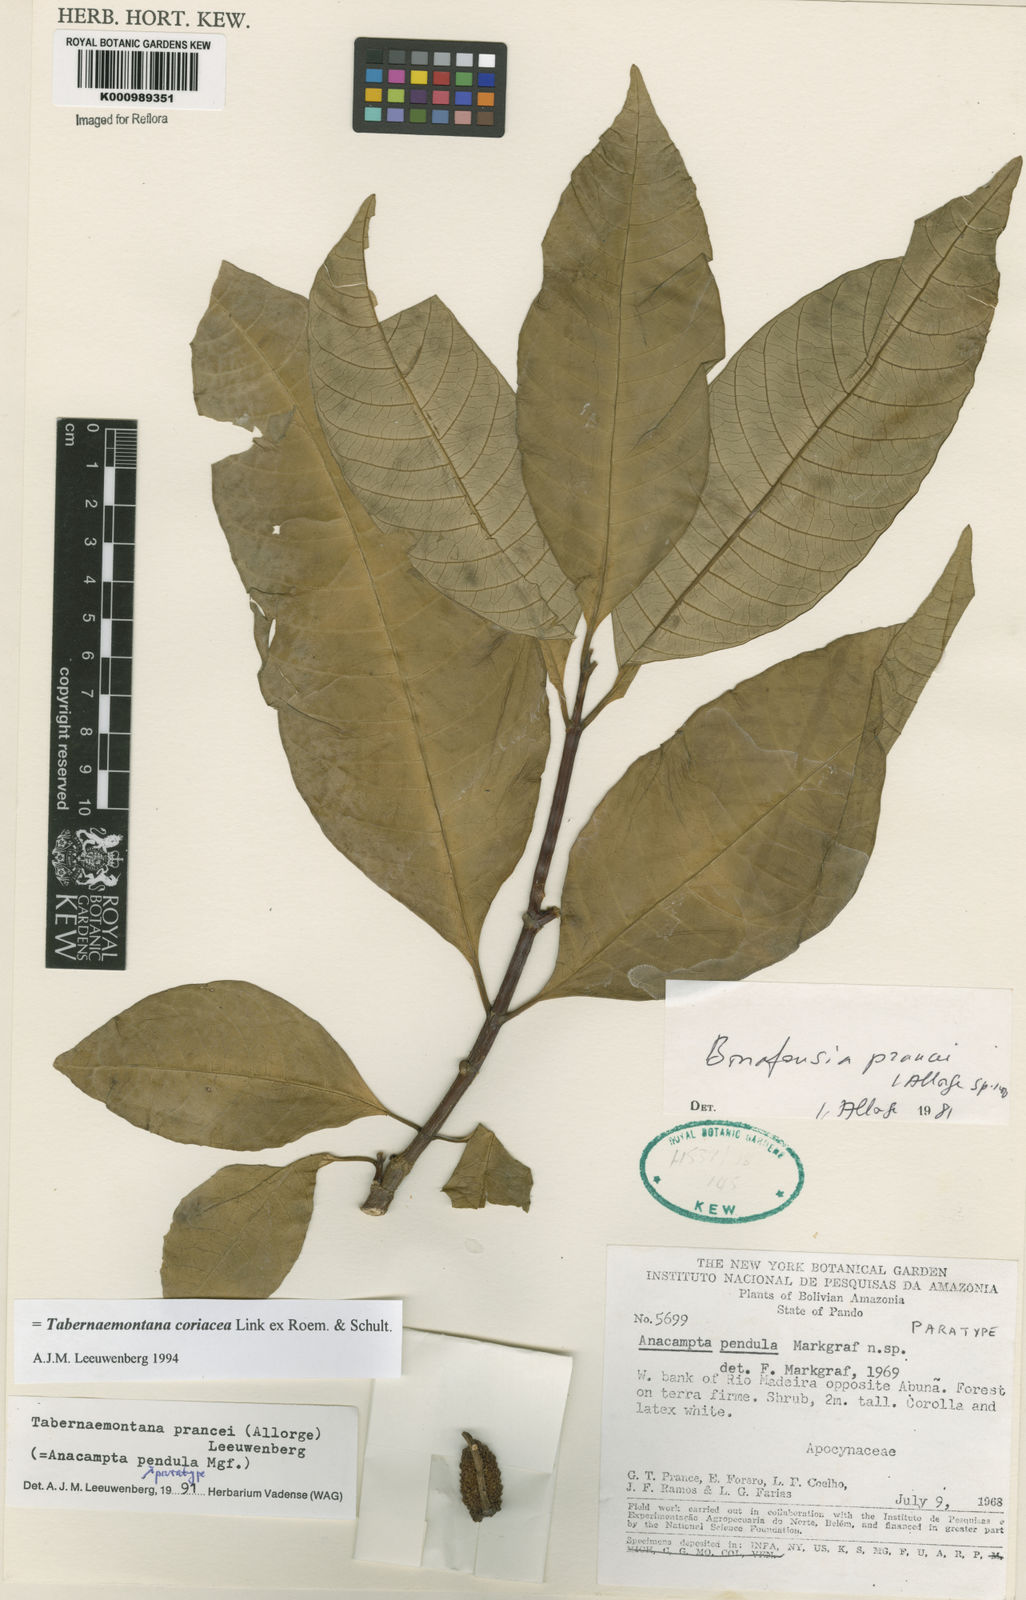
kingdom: Plantae
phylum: Tracheophyta
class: Magnoliopsida
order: Gentianales
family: Apocynaceae
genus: Tabernaemontana
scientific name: Tabernaemontana coriacea
